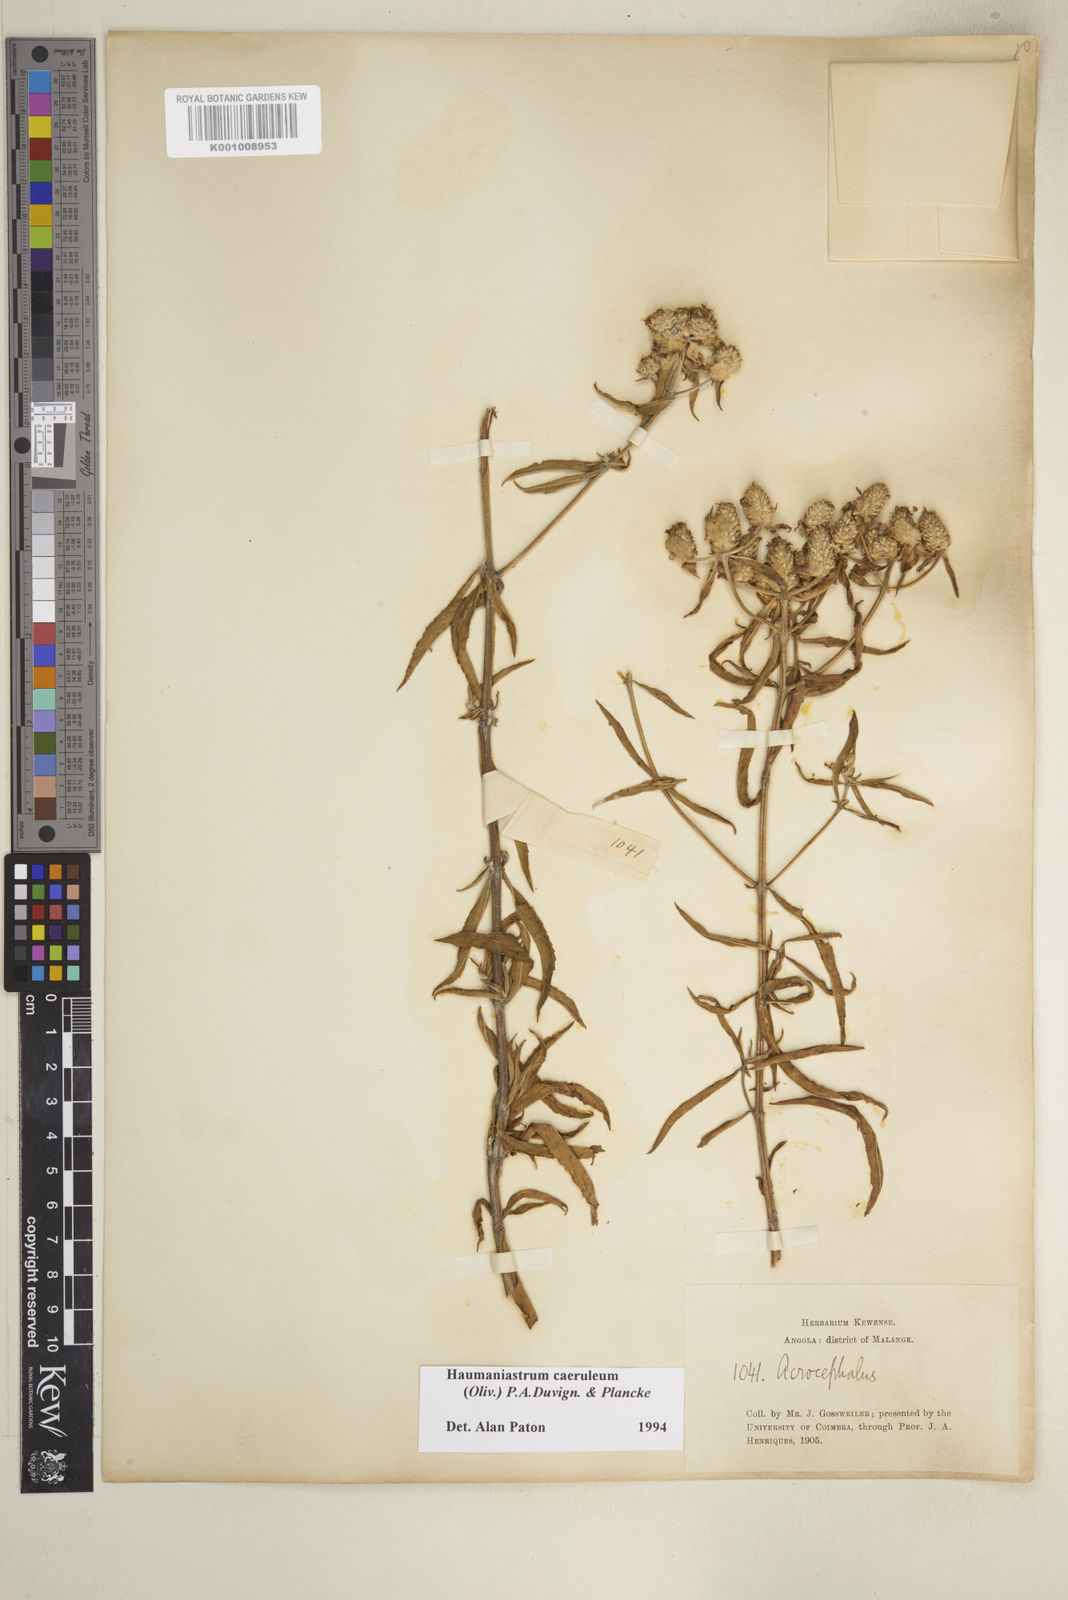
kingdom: Plantae
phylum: Tracheophyta
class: Magnoliopsida
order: Lamiales
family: Lamiaceae
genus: Haumaniastrum
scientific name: Haumaniastrum caeruleum
